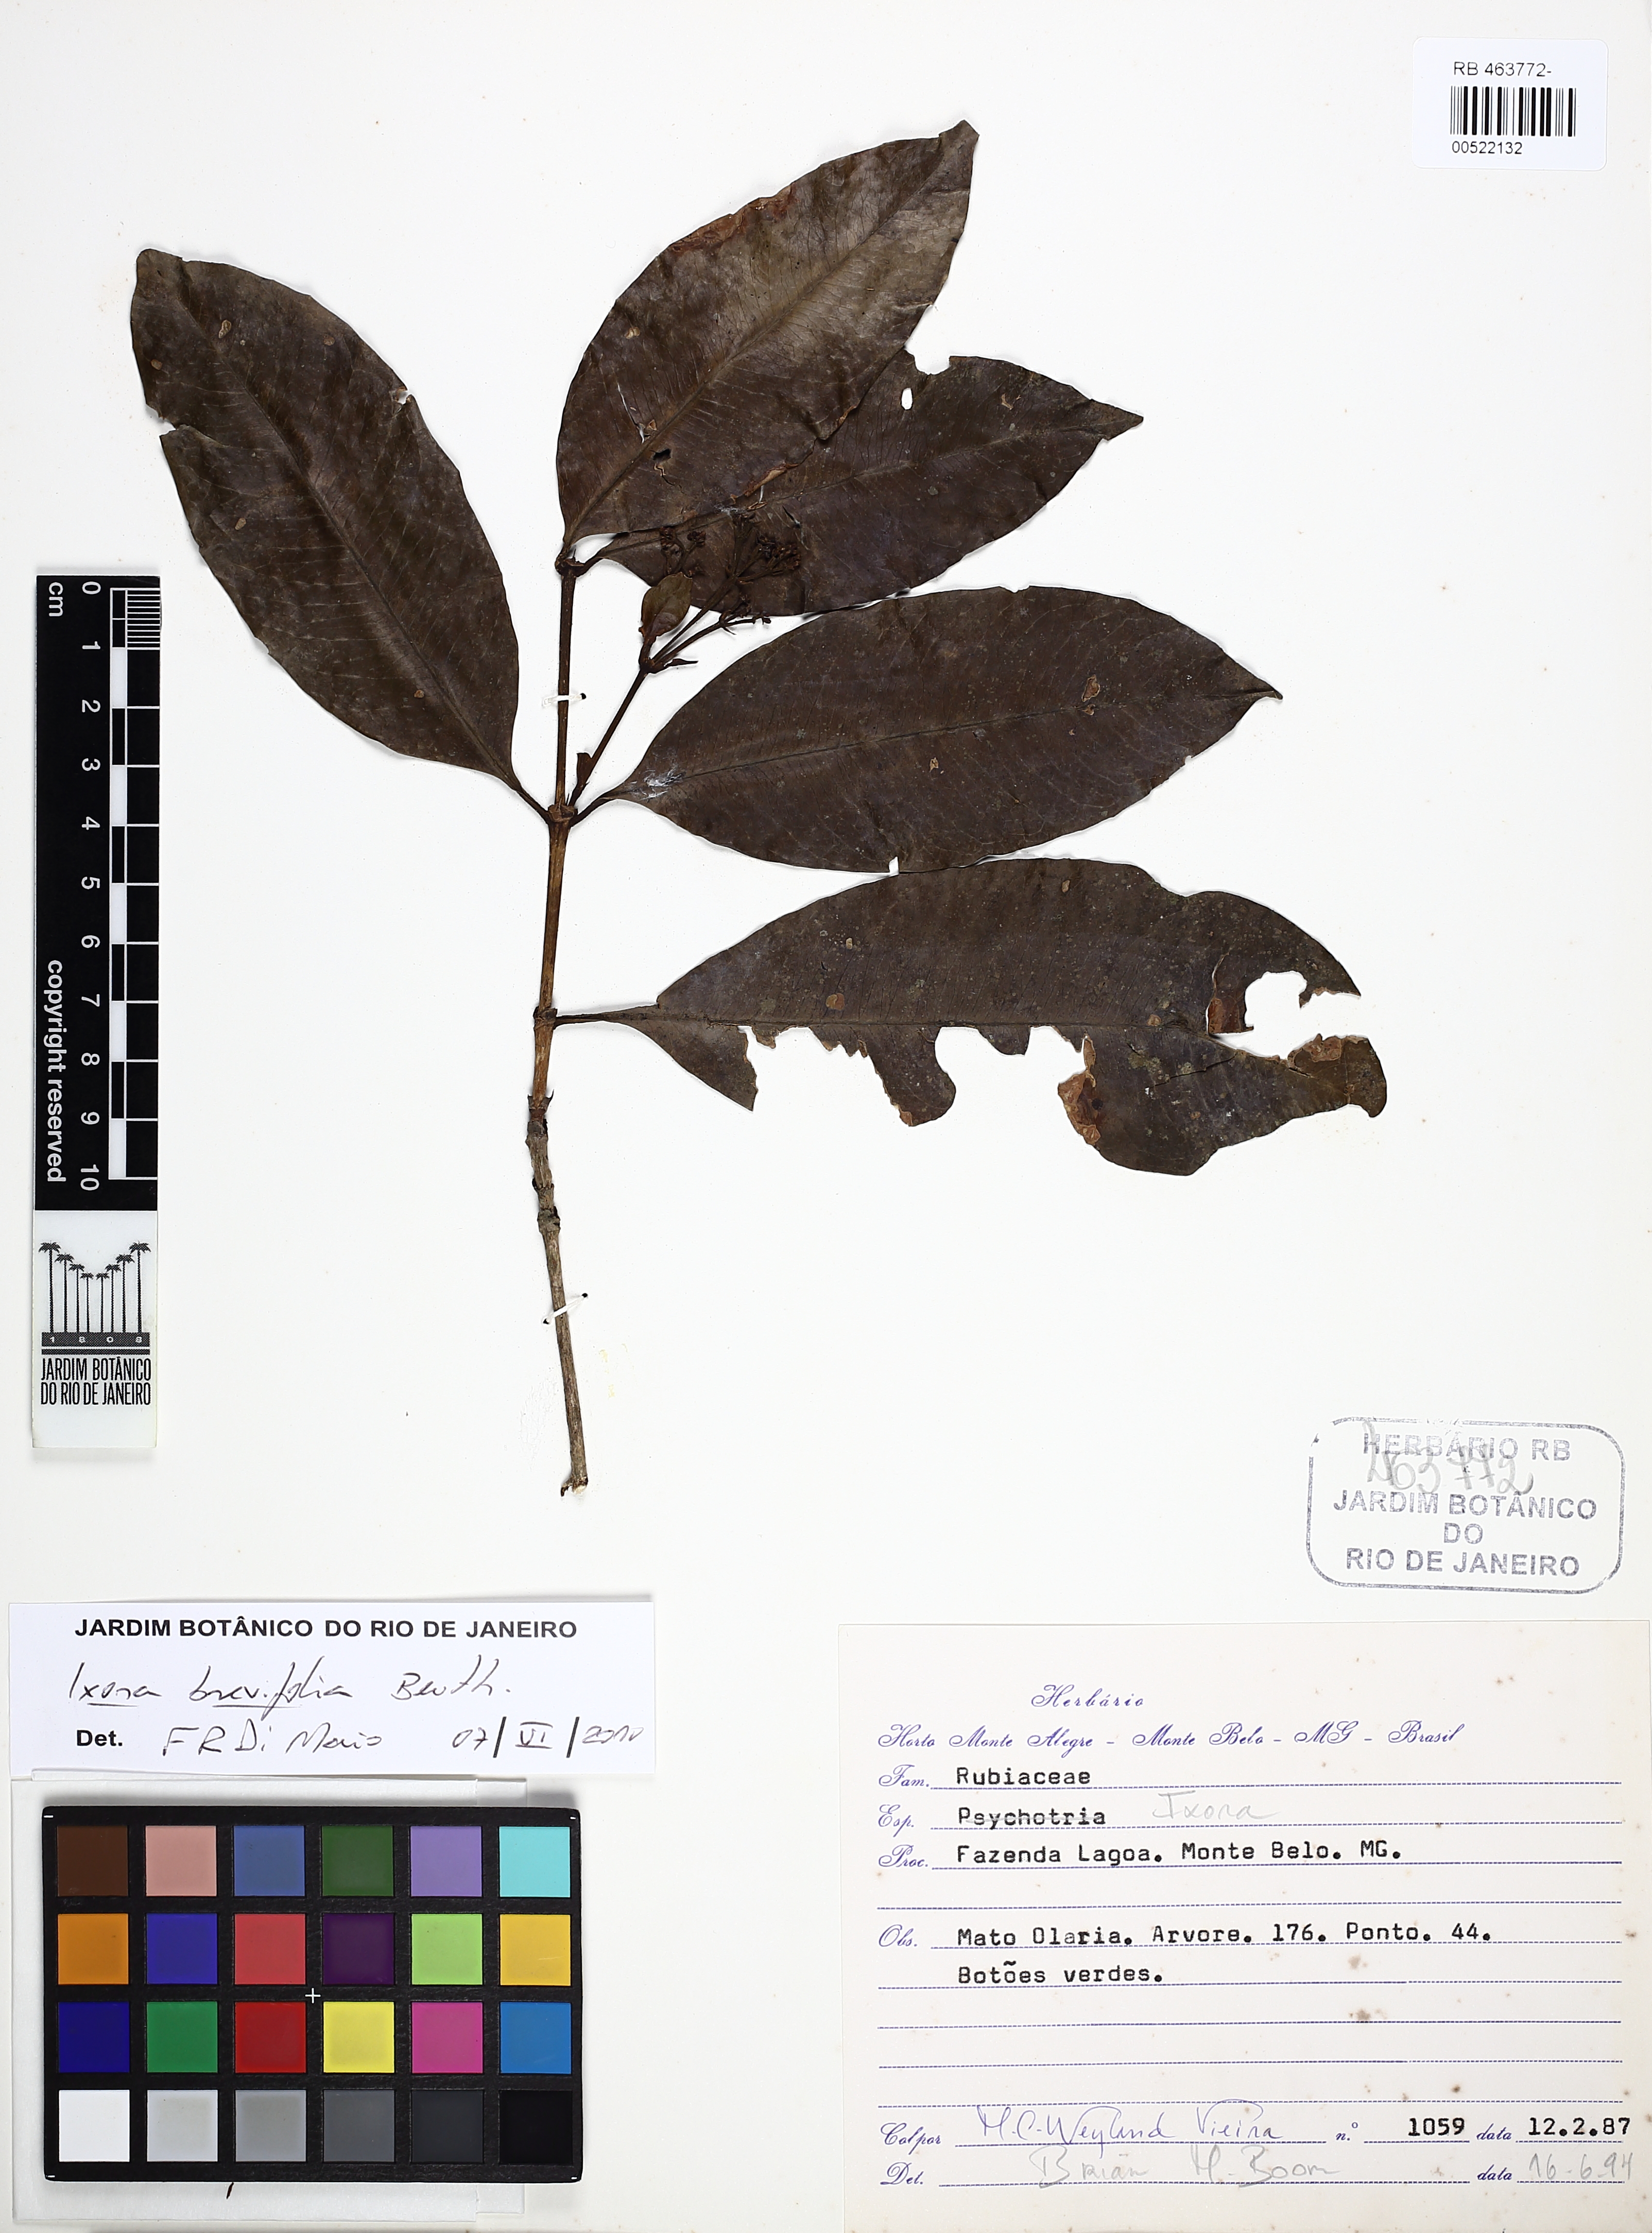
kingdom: Plantae
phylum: Tracheophyta
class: Magnoliopsida
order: Gentianales
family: Rubiaceae
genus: Ixora
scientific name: Ixora brevifolia
